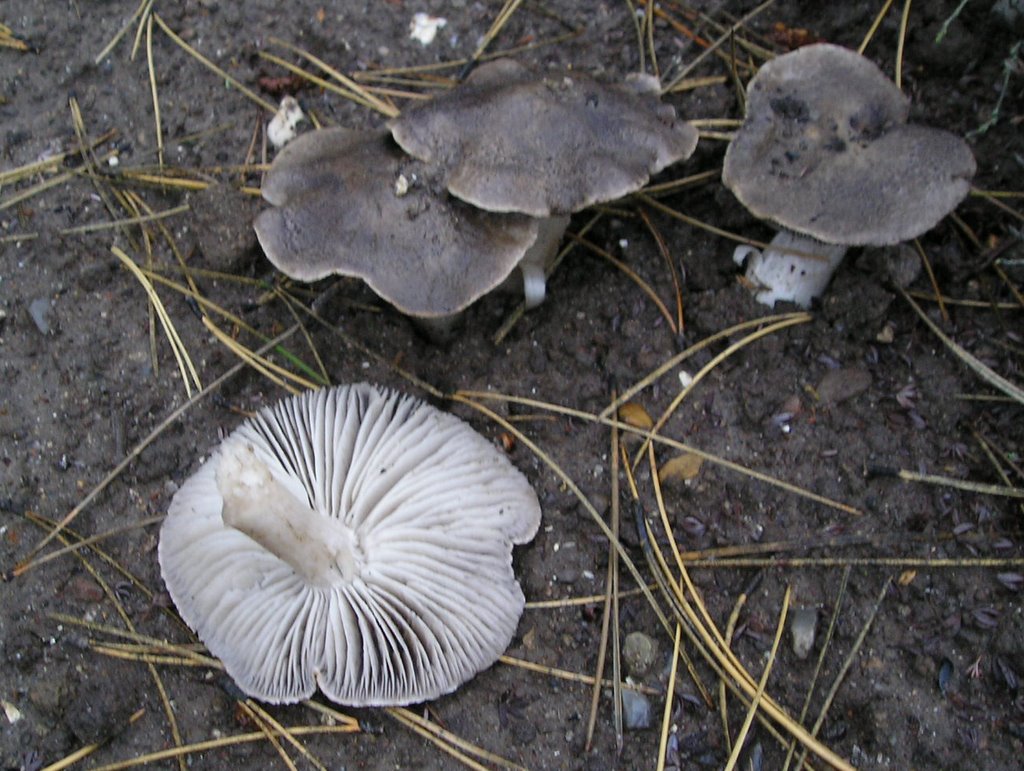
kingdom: Fungi
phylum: Basidiomycota
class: Agaricomycetes
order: Agaricales
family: Tricholomataceae
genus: Tricholoma
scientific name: Tricholoma terreum
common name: jordfarvet ridderhat
